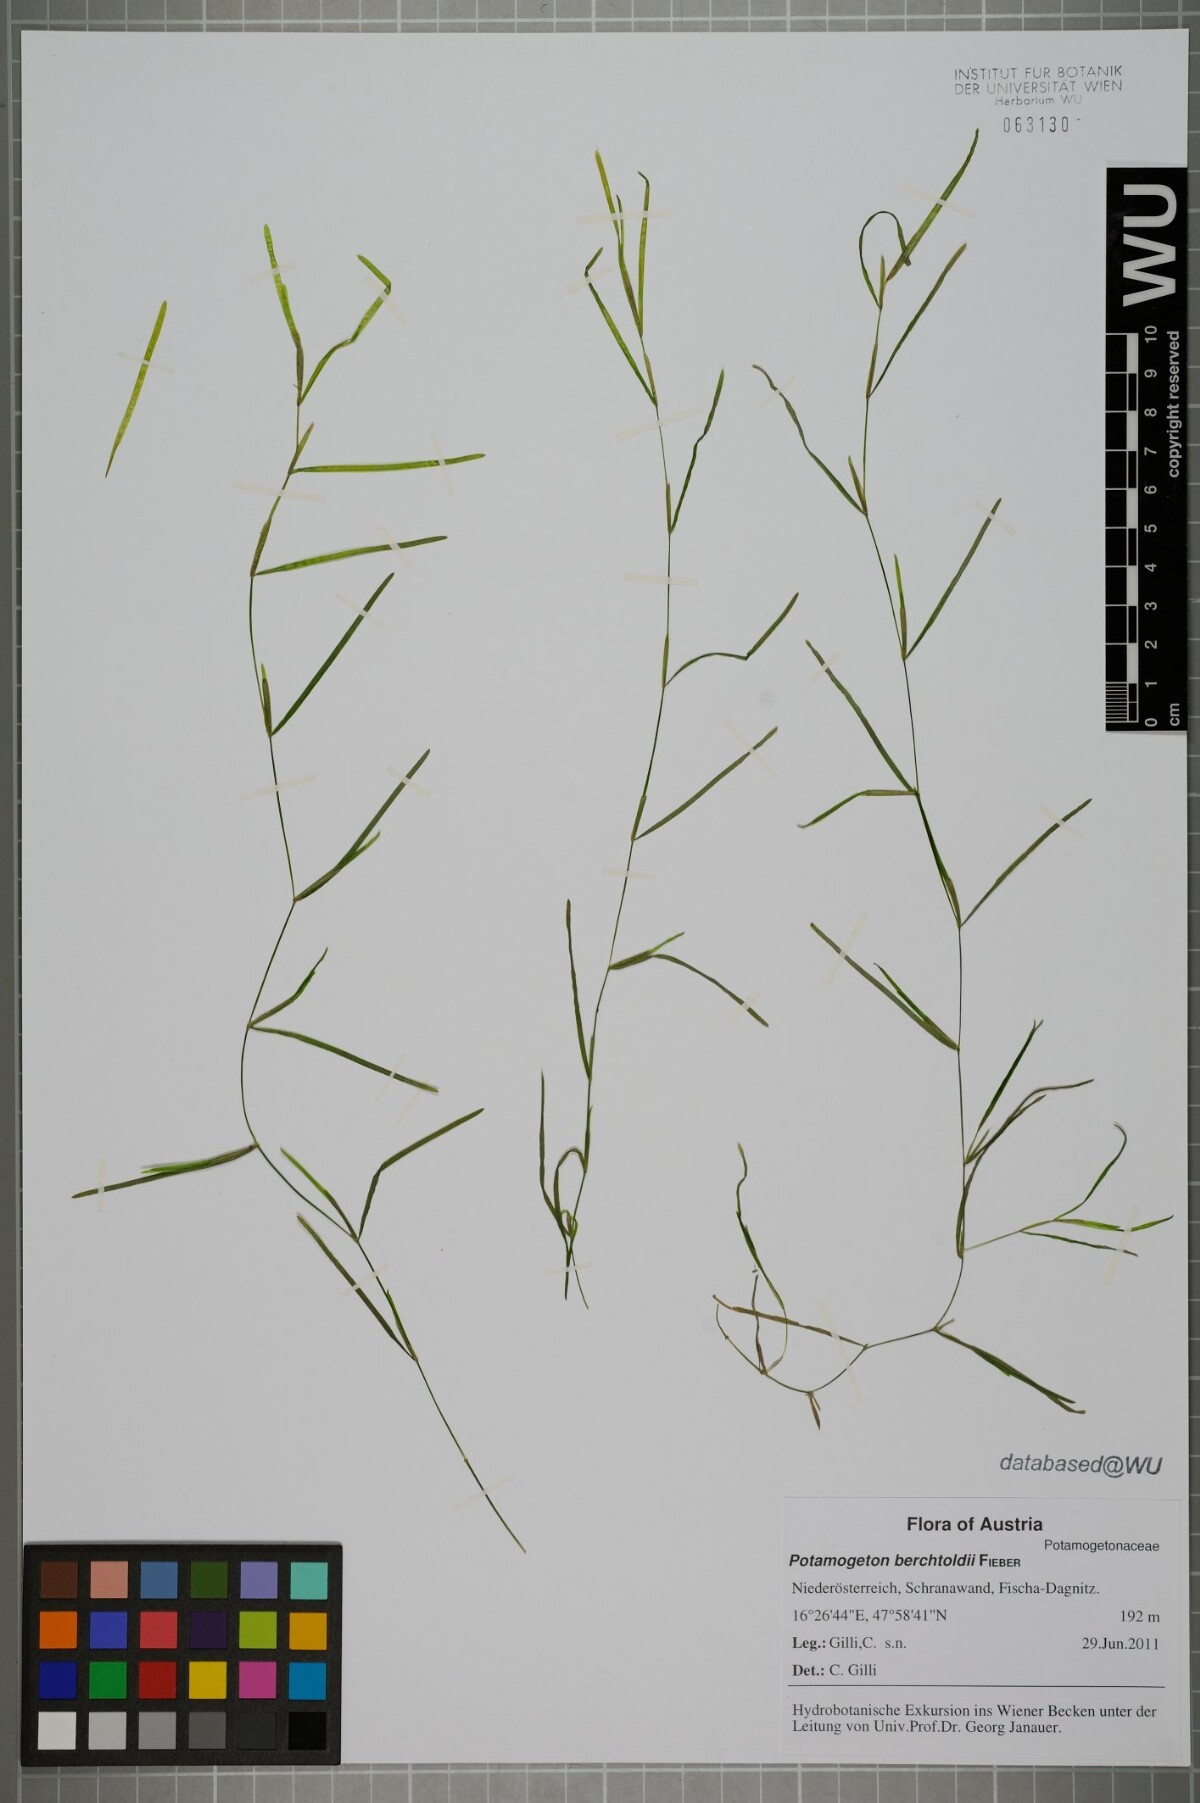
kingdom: Plantae
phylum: Tracheophyta
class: Liliopsida
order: Alismatales
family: Potamogetonaceae
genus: Potamogeton
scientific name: Potamogeton berchtoldii
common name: Small pondweed
